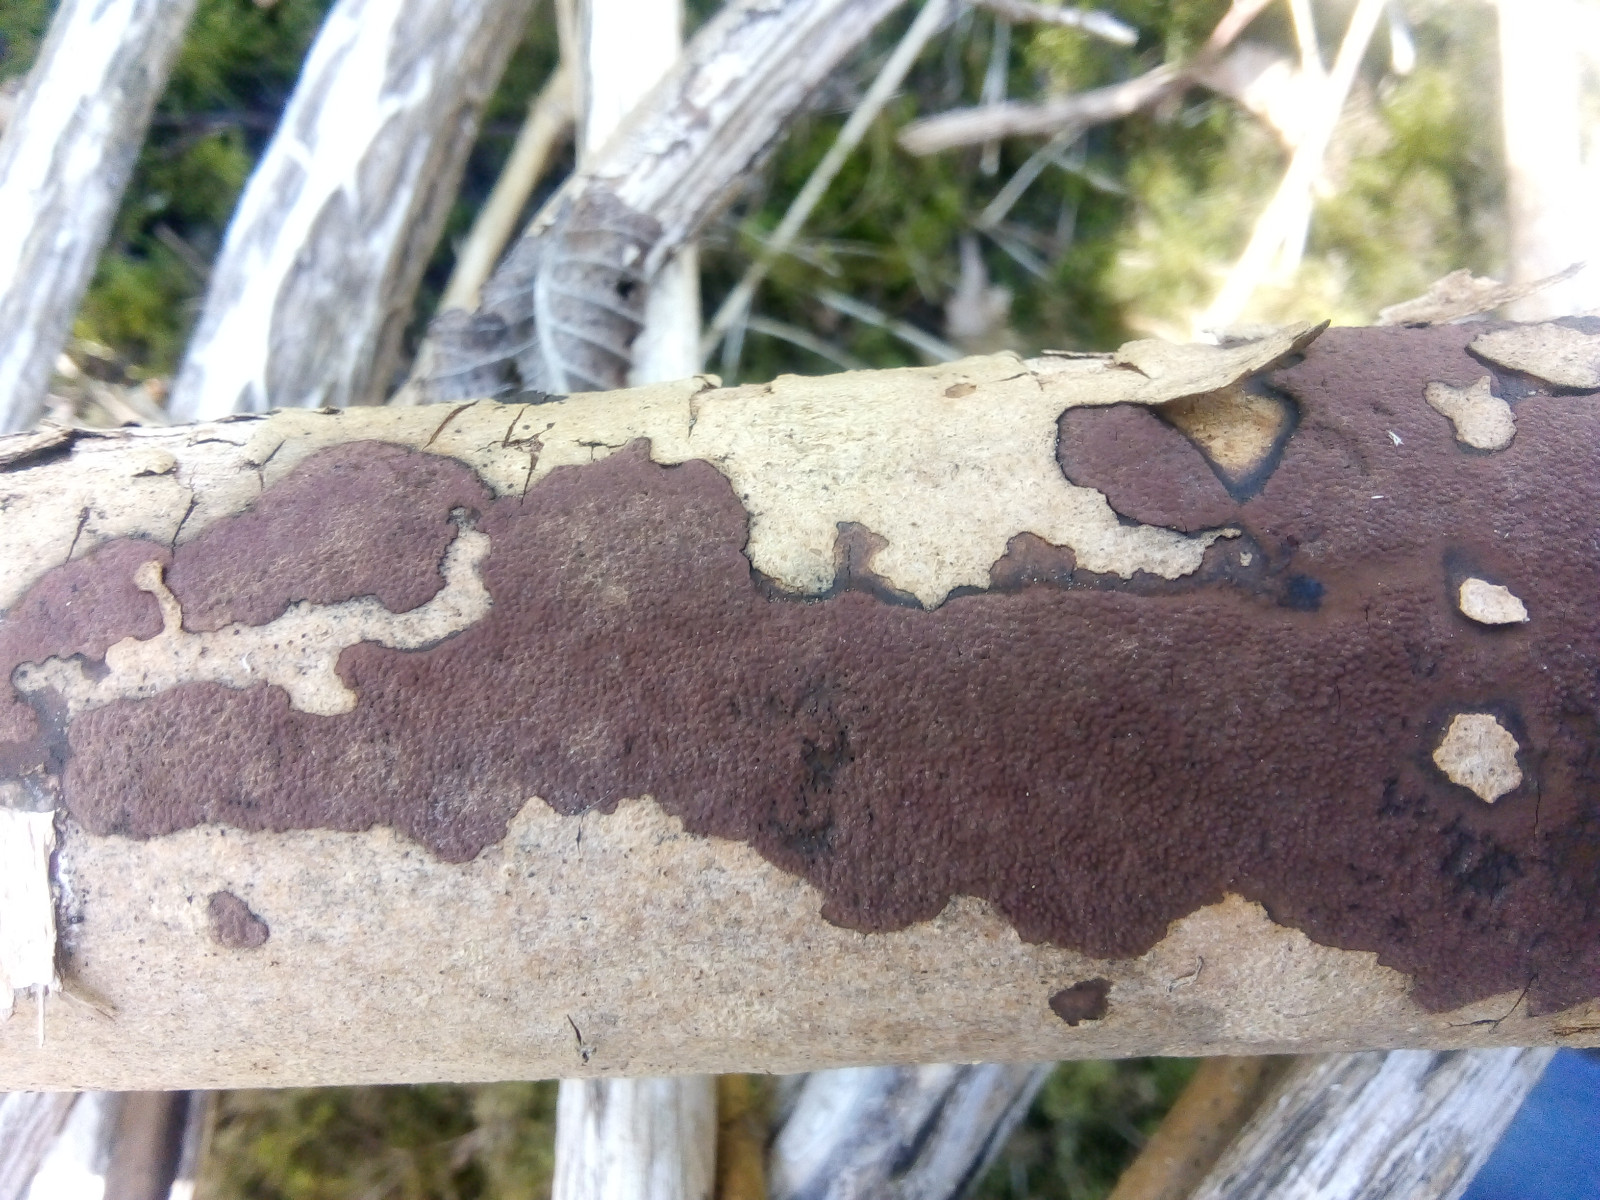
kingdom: Fungi
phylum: Ascomycota
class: Sordariomycetes
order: Xylariales
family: Hypoxylaceae
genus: Hypoxylon
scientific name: Hypoxylon petriniae
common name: nedsænket kulbær
